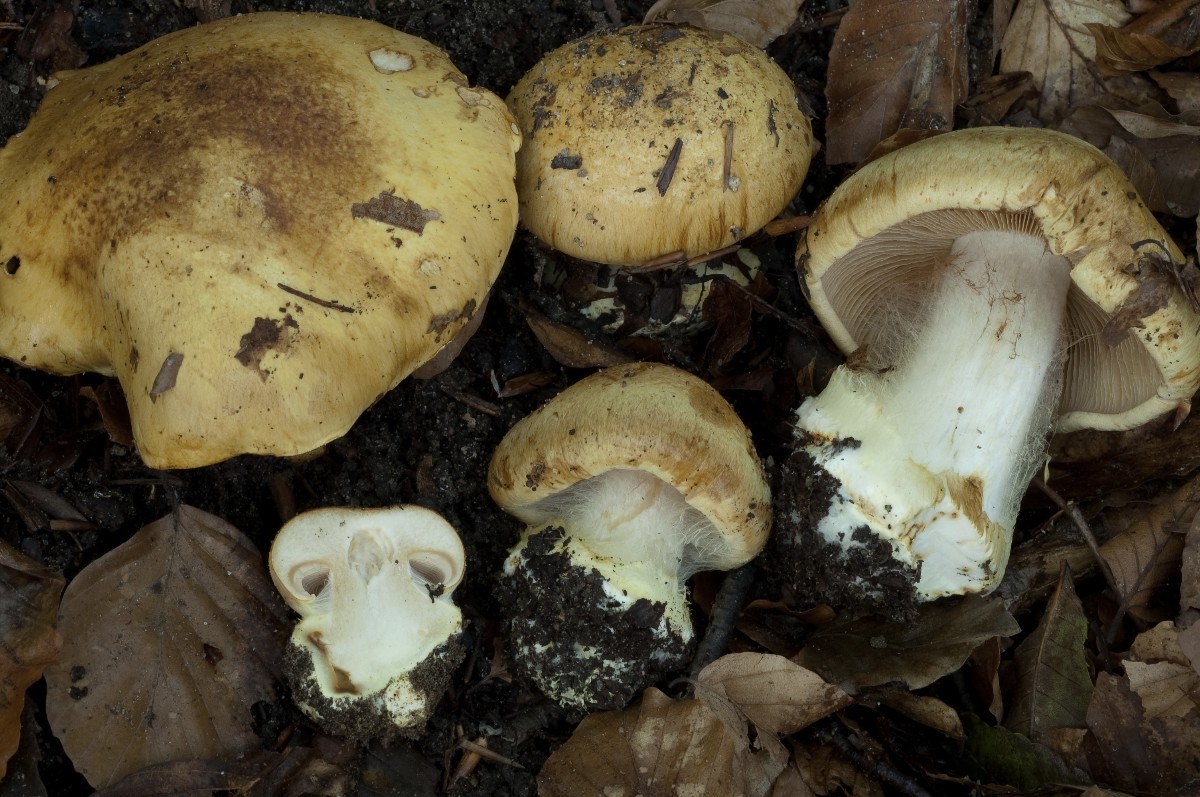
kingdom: Fungi
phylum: Basidiomycota
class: Agaricomycetes
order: Agaricales
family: Cortinariaceae
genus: Calonarius
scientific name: Calonarius langeorum
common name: Langes slørhat
